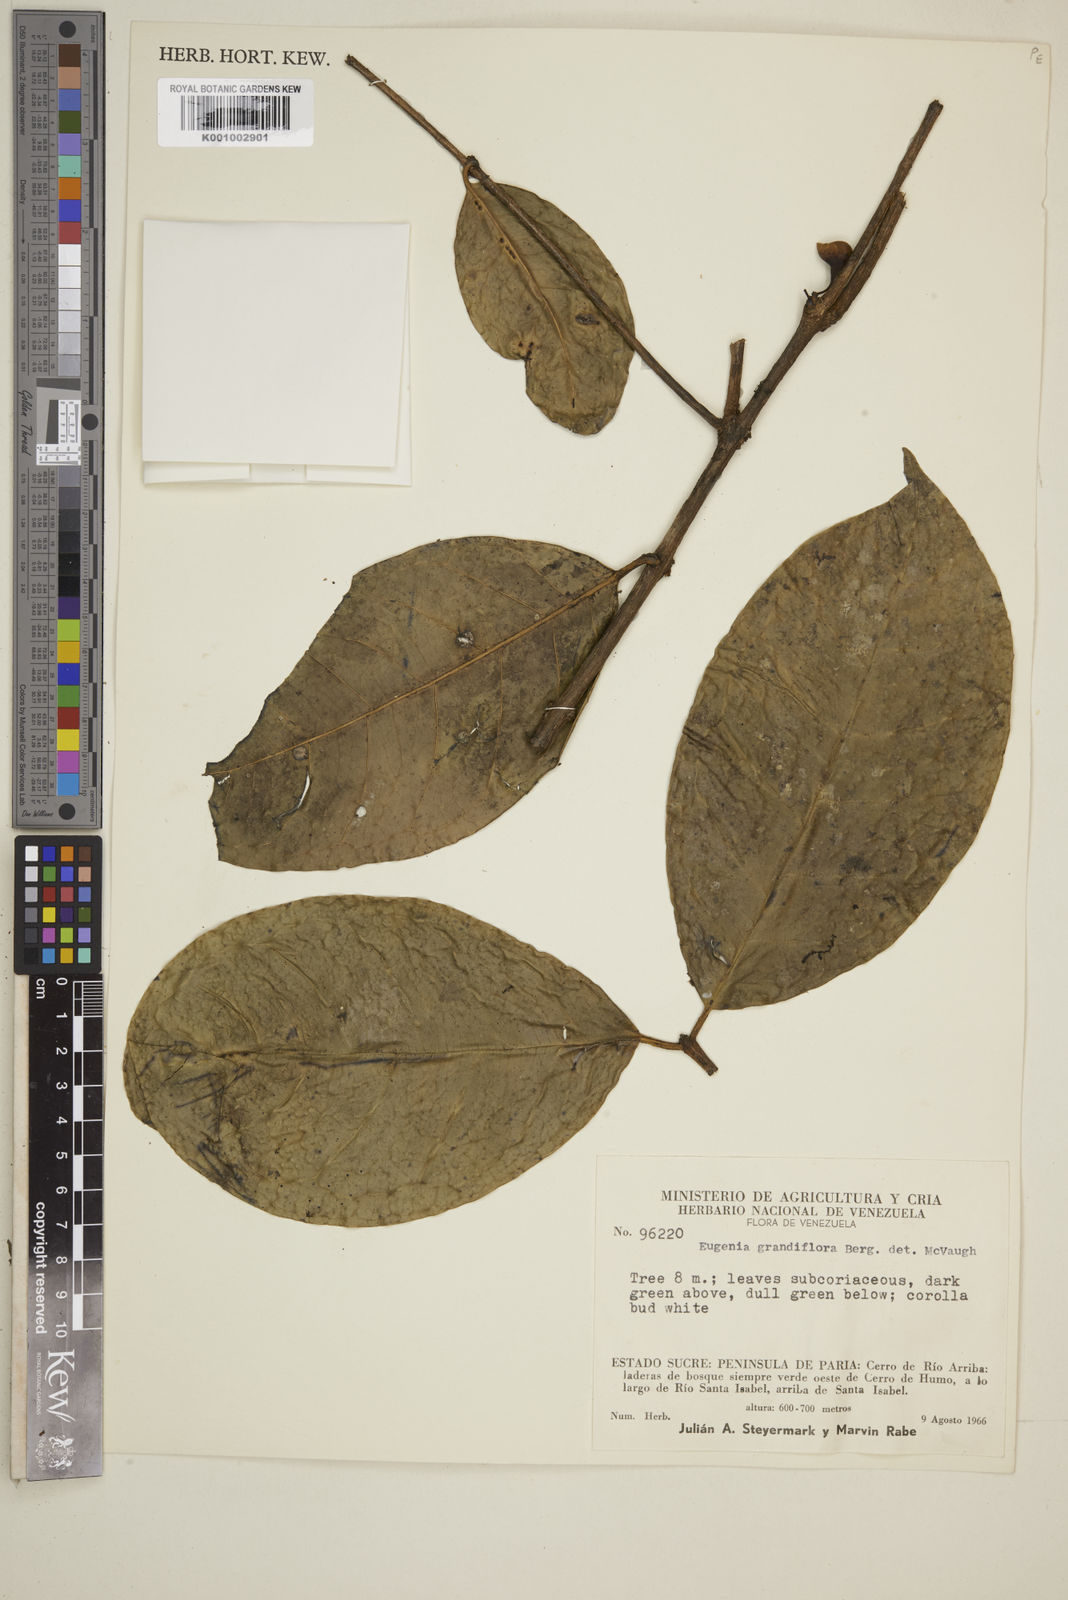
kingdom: Plantae
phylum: Tracheophyta
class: Magnoliopsida
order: Myrtales
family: Myrtaceae
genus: Eugenia
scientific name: Eugenia grandiflora
